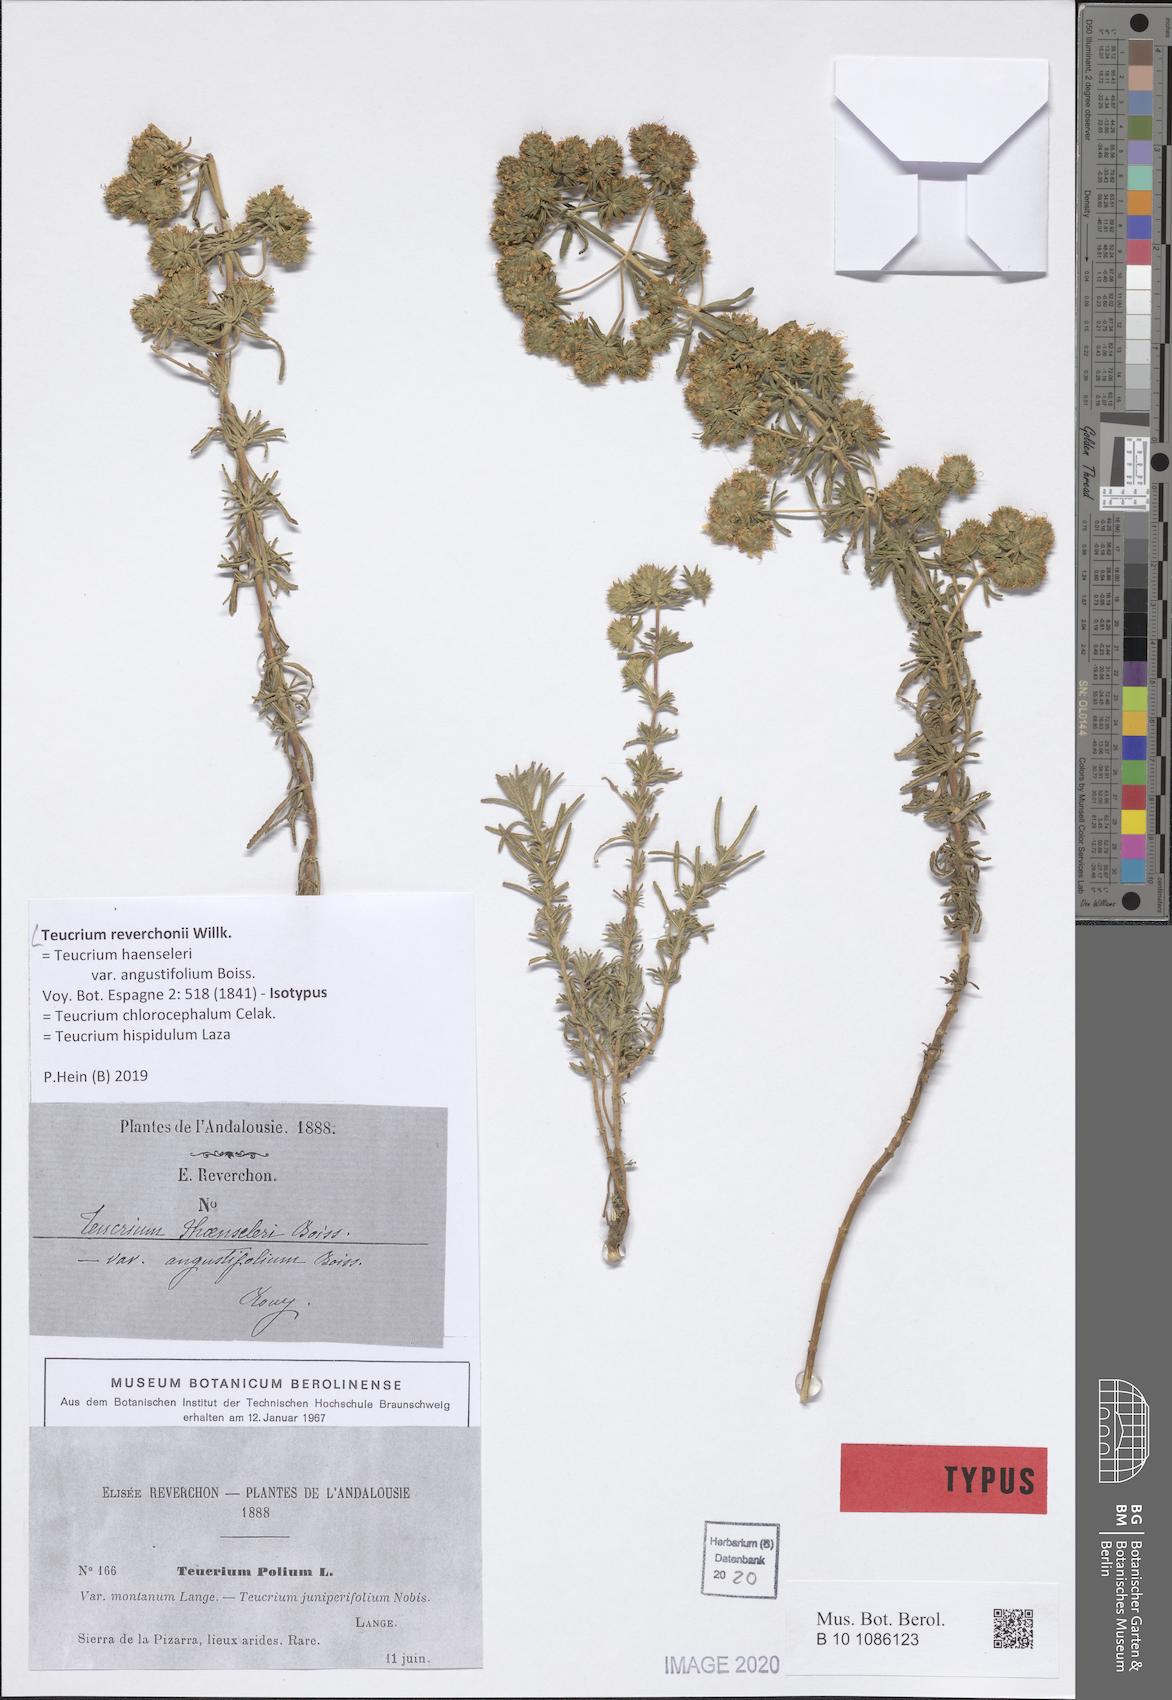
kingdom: Plantae
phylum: Tracheophyta
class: Magnoliopsida
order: Lamiales
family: Lamiaceae
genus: Teucrium
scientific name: Teucrium chlorocephalum
